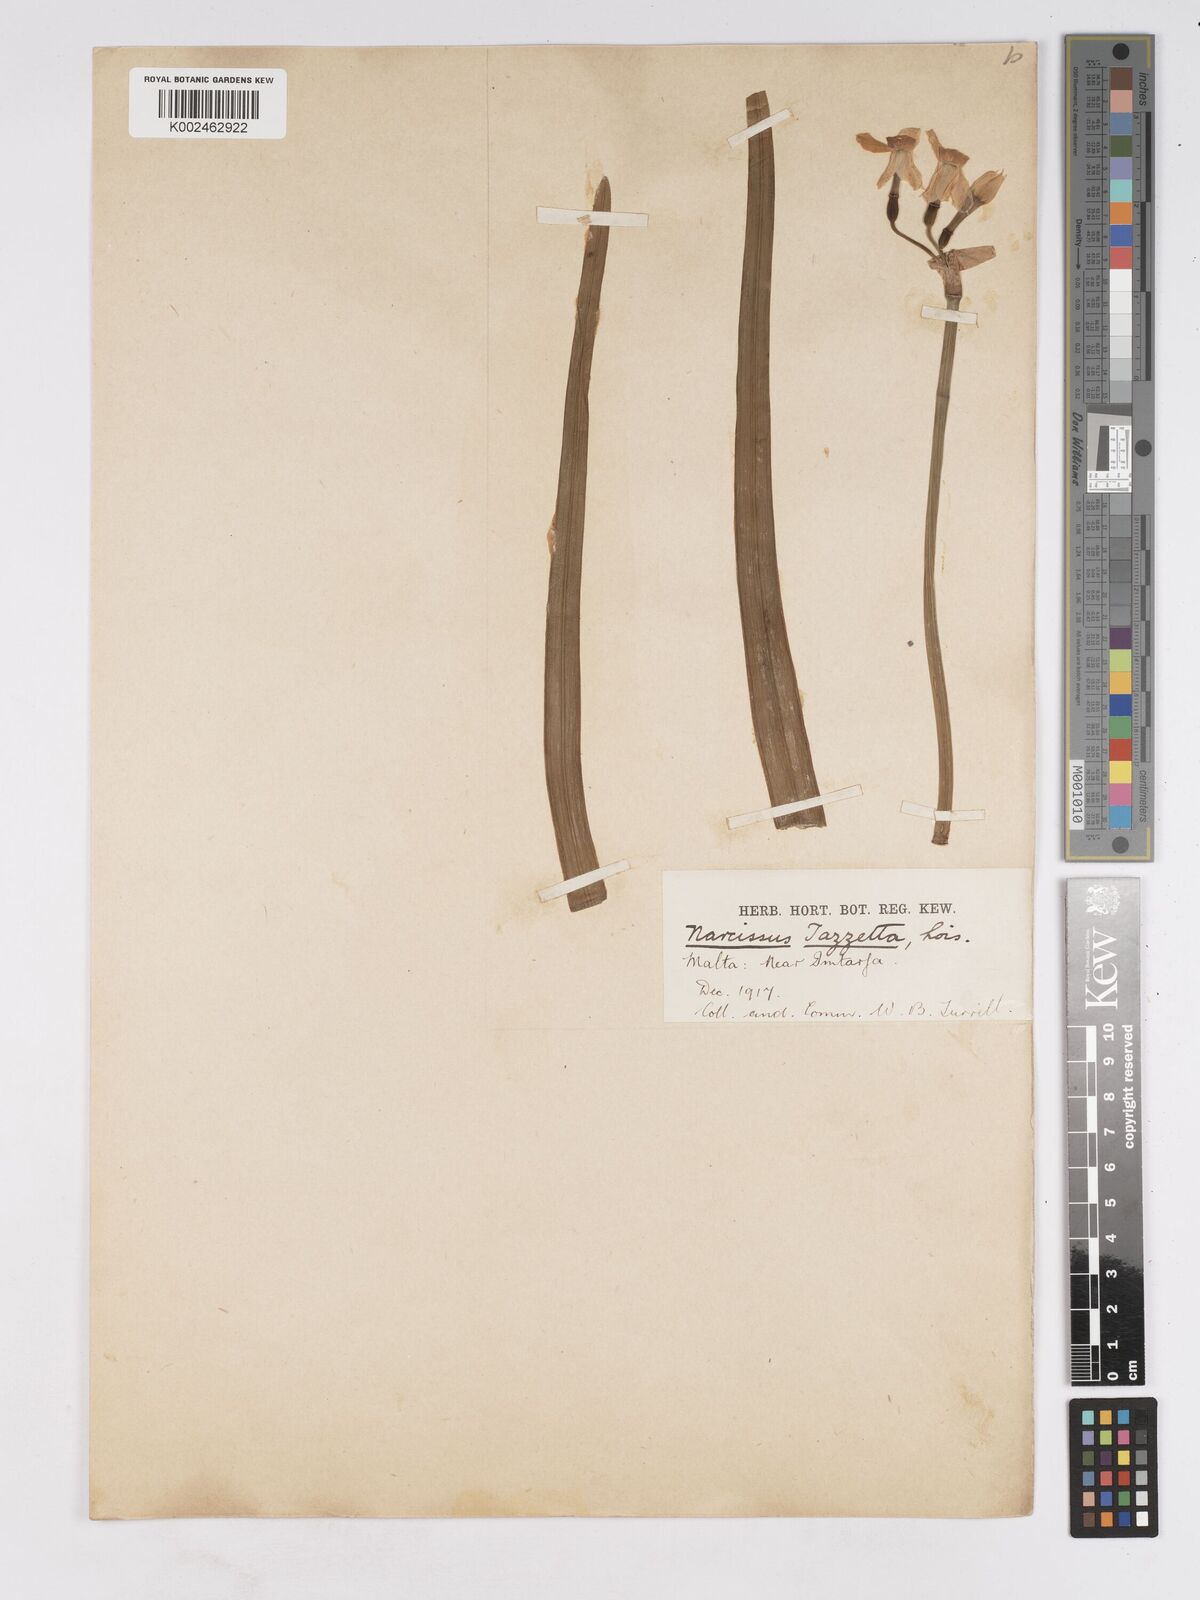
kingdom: Plantae
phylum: Tracheophyta
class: Liliopsida
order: Asparagales
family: Amaryllidaceae
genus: Narcissus
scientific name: Narcissus
